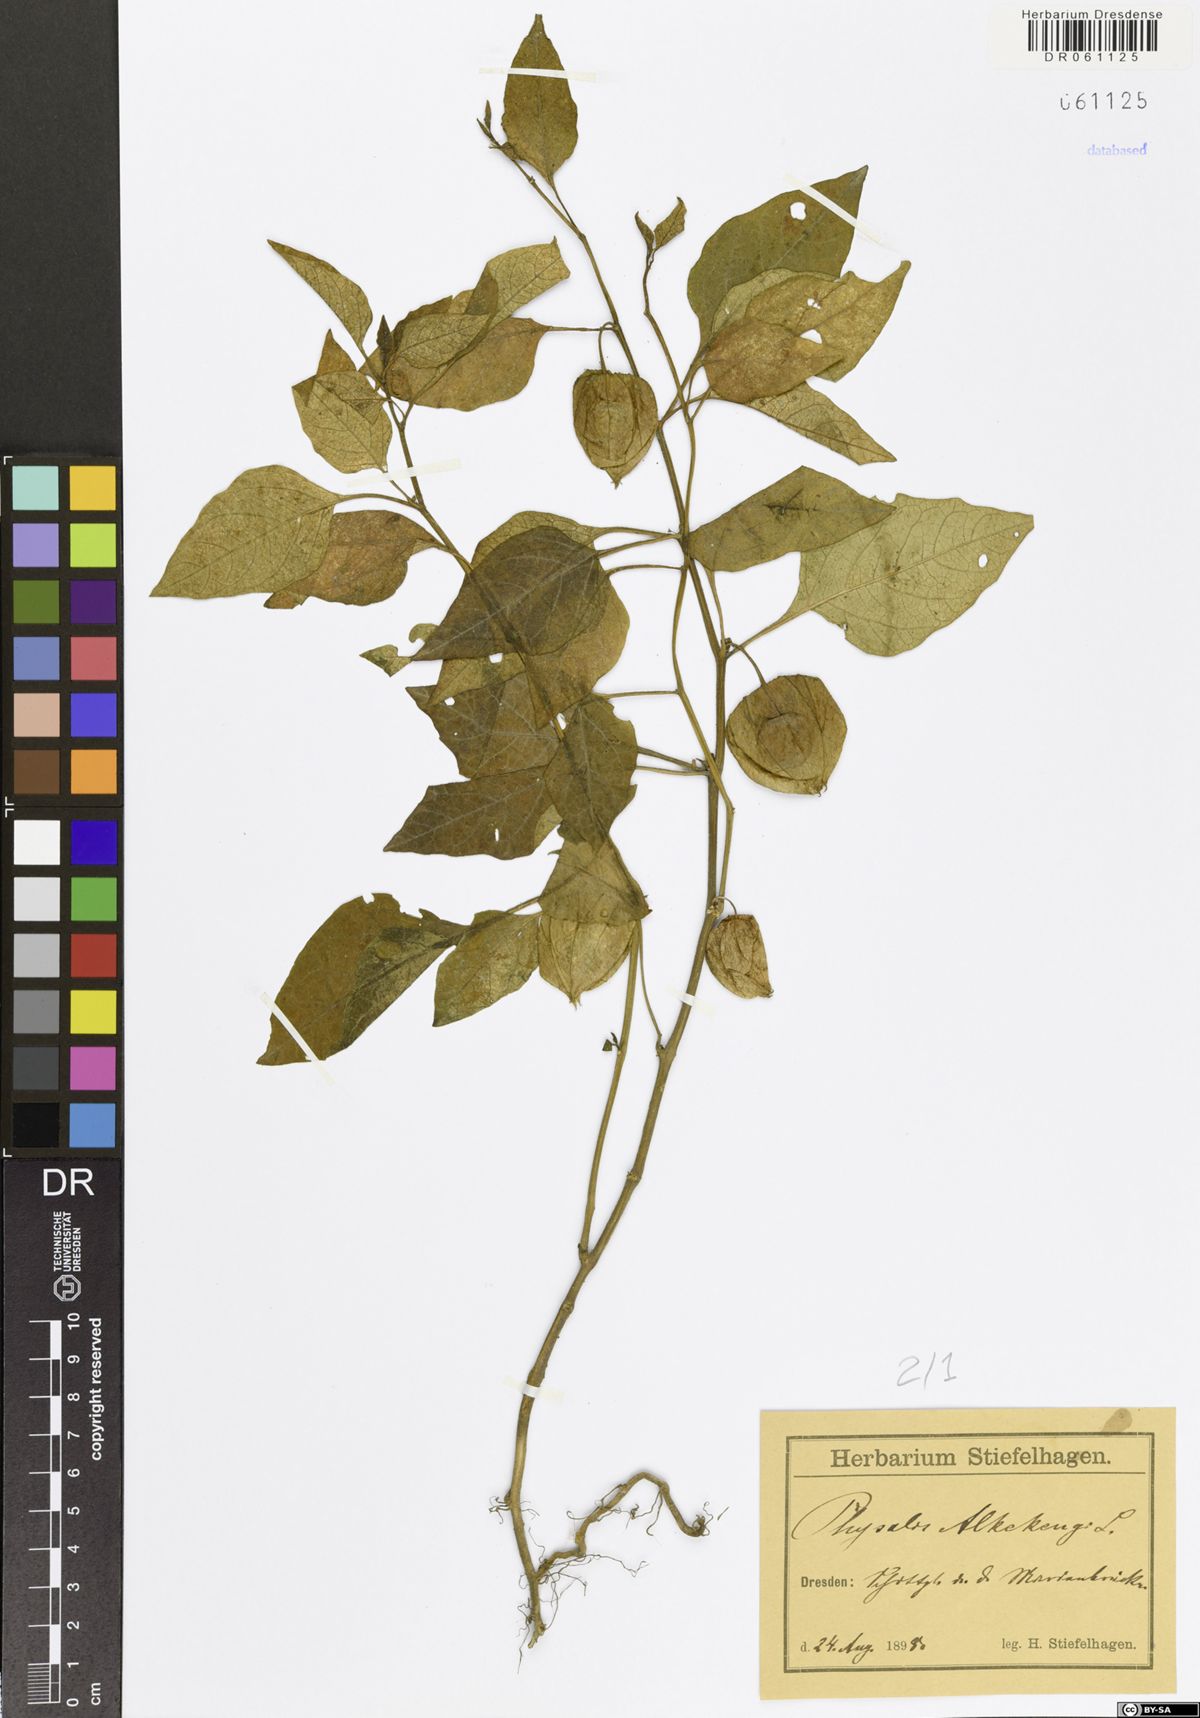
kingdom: Plantae
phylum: Tracheophyta
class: Magnoliopsida
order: Solanales
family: Solanaceae
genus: Alkekengi
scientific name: Alkekengi officinarum
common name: Japanese-lantern
